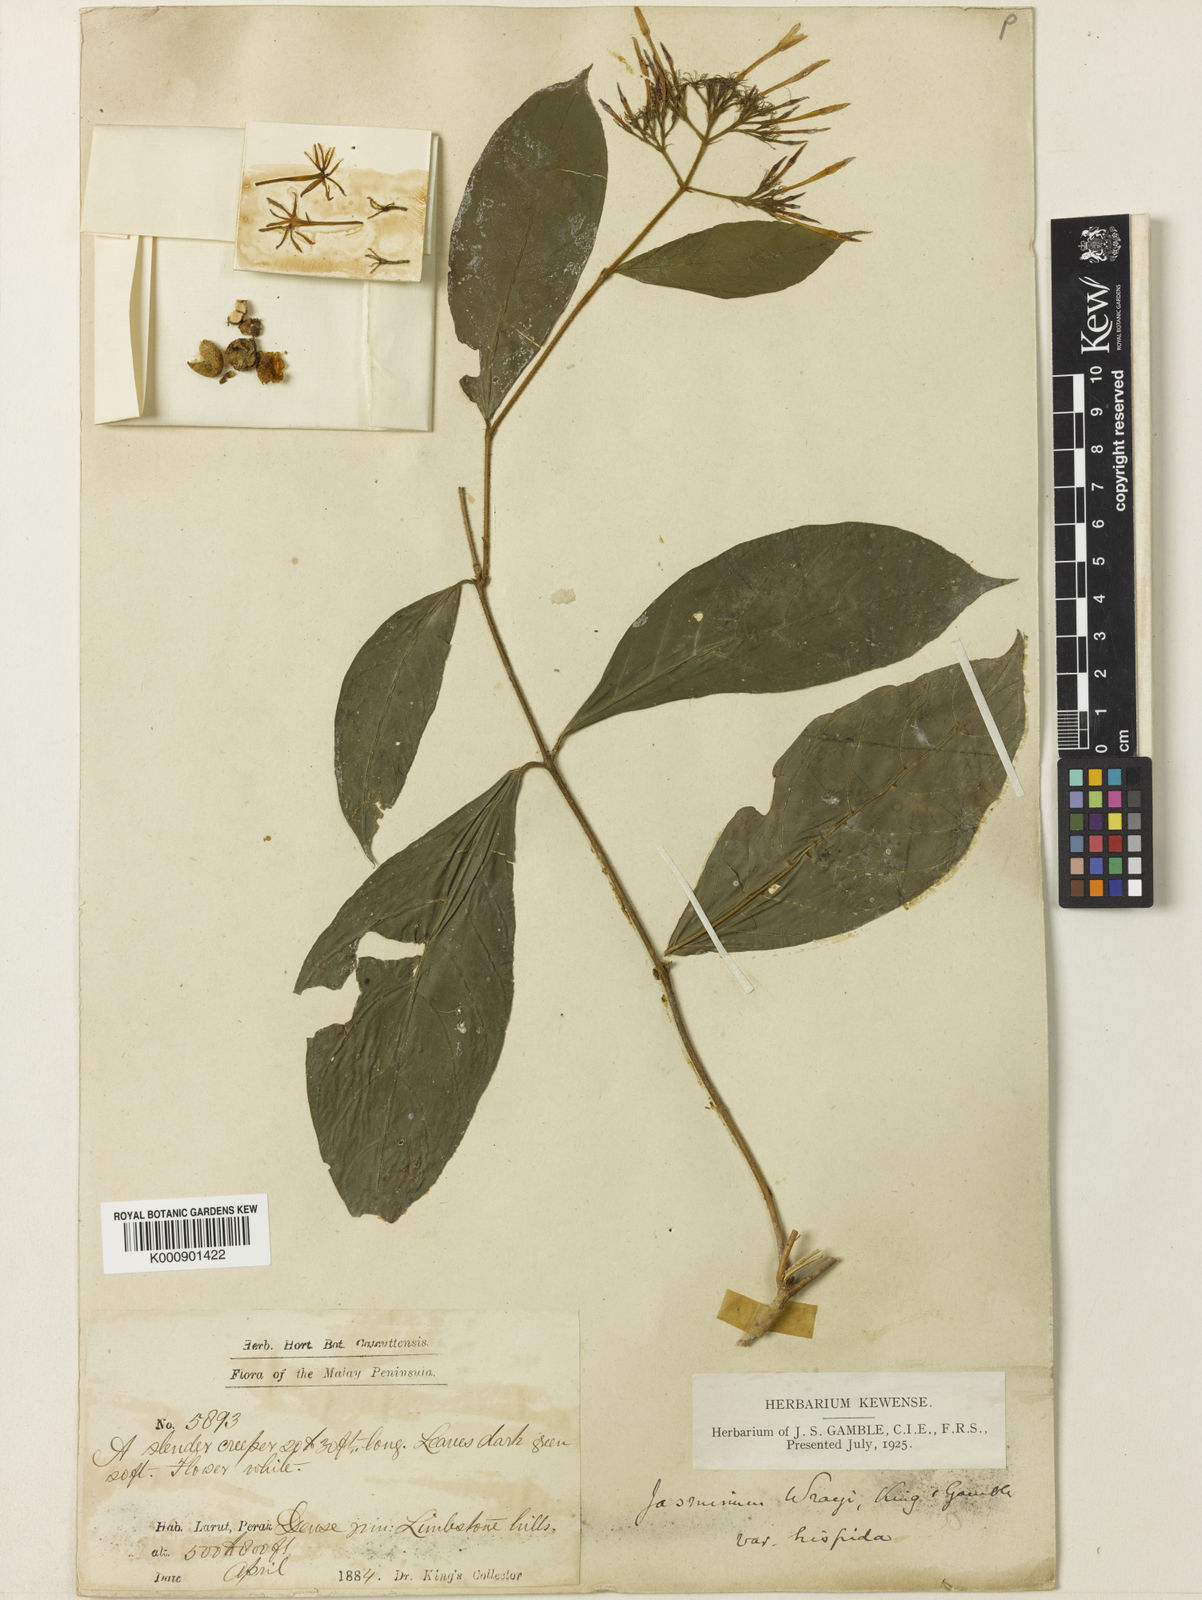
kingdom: Plantae
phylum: Tracheophyta
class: Magnoliopsida
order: Lamiales
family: Oleaceae
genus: Jasminum
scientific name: Jasminum wrayi
